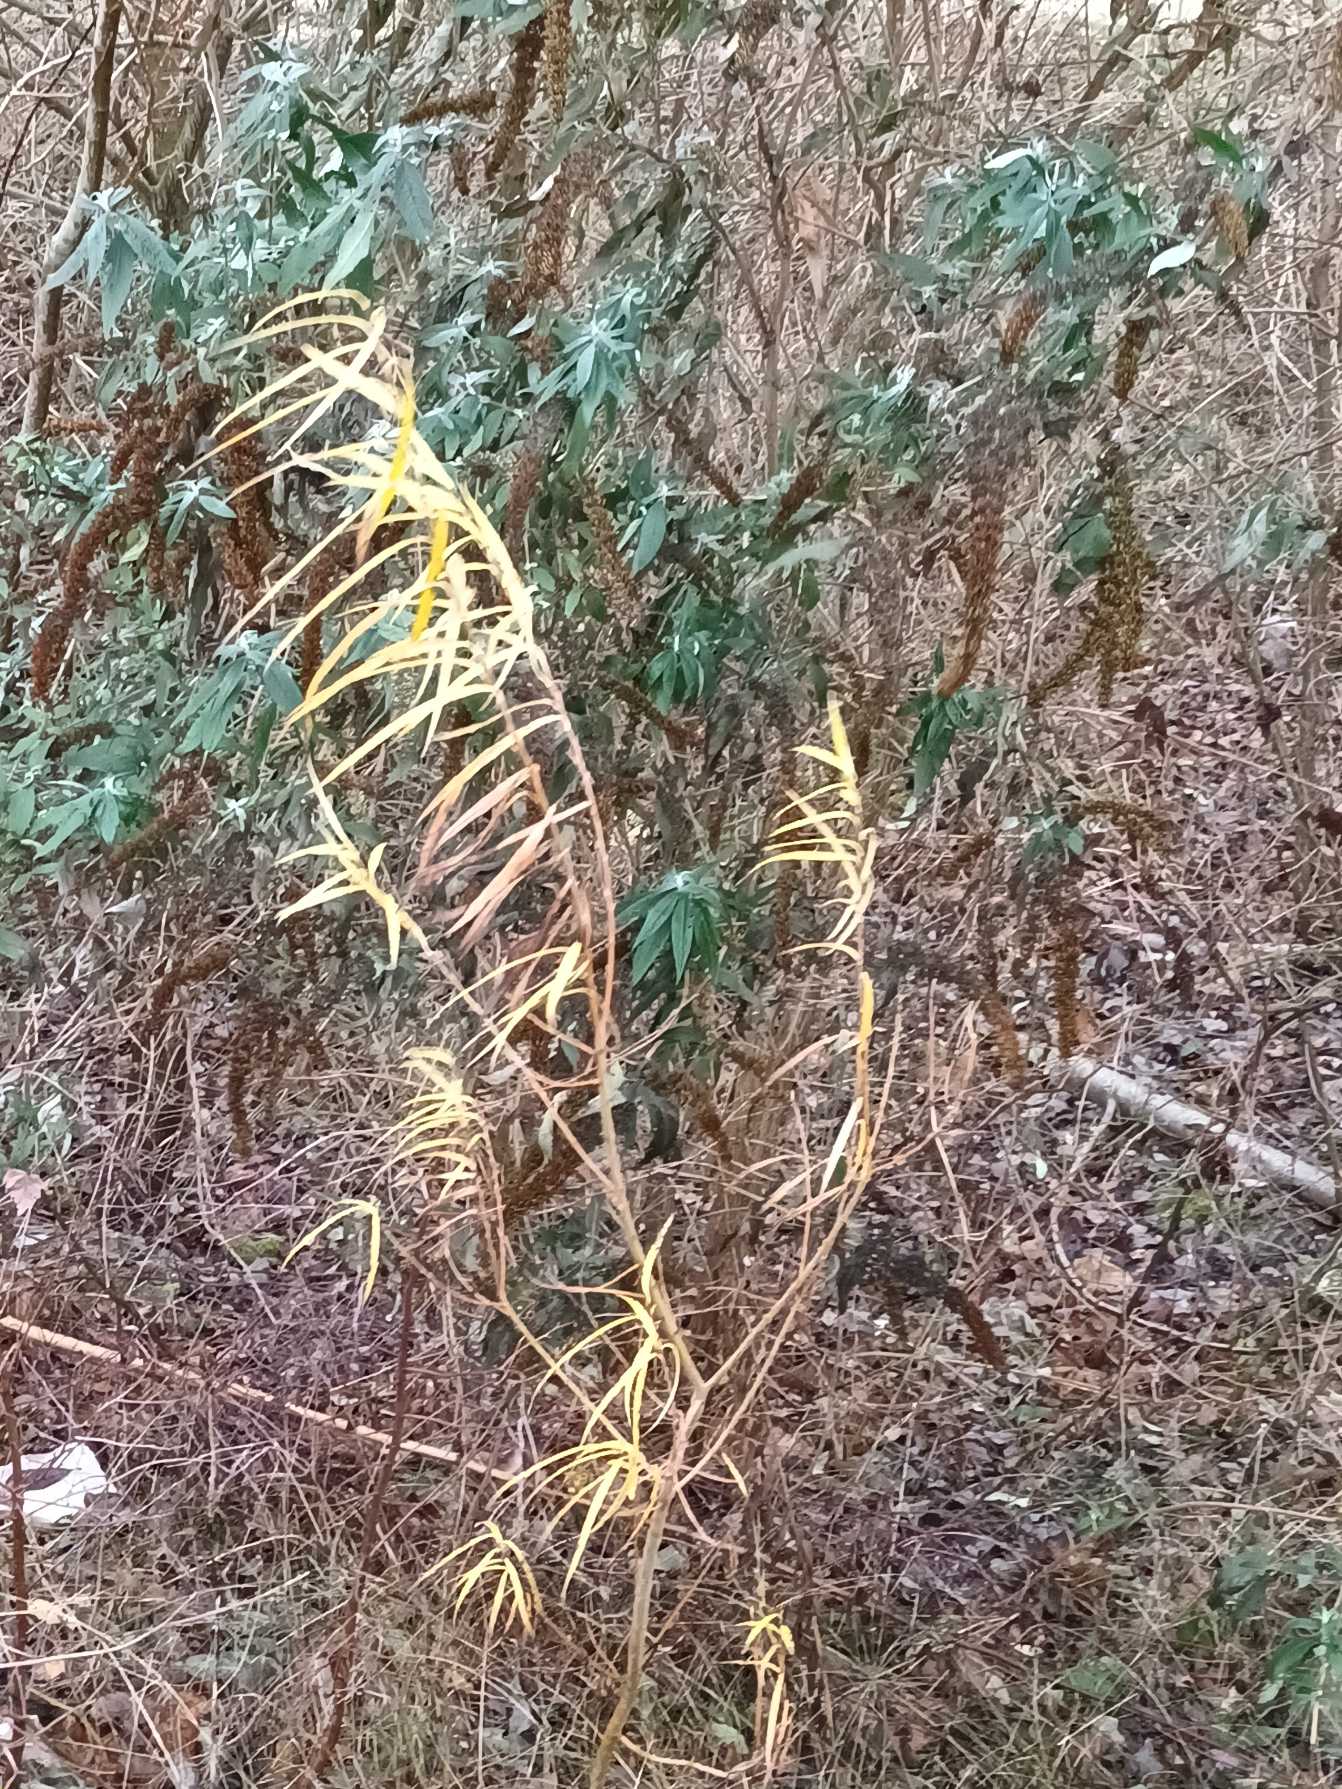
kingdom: Plantae
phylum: Tracheophyta
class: Magnoliopsida
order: Malpighiales
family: Salicaceae
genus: Salix
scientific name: Salix viminalis
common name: Bånd-pil
